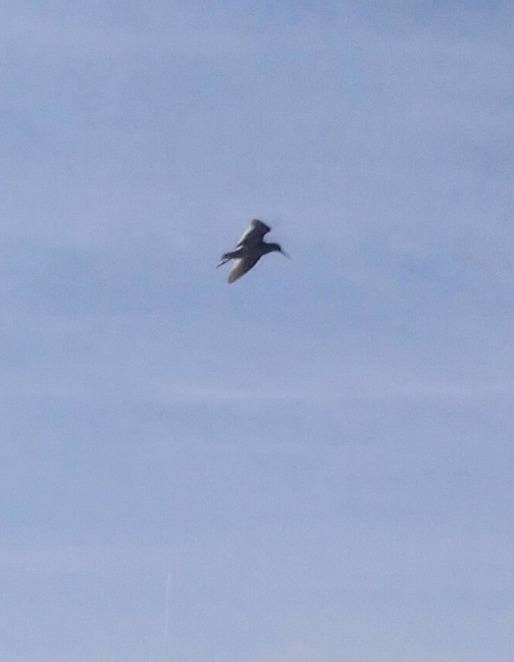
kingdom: Animalia
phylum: Chordata
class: Aves
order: Charadriiformes
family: Scolopacidae
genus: Tringa
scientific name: Tringa totanus
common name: Rødben
